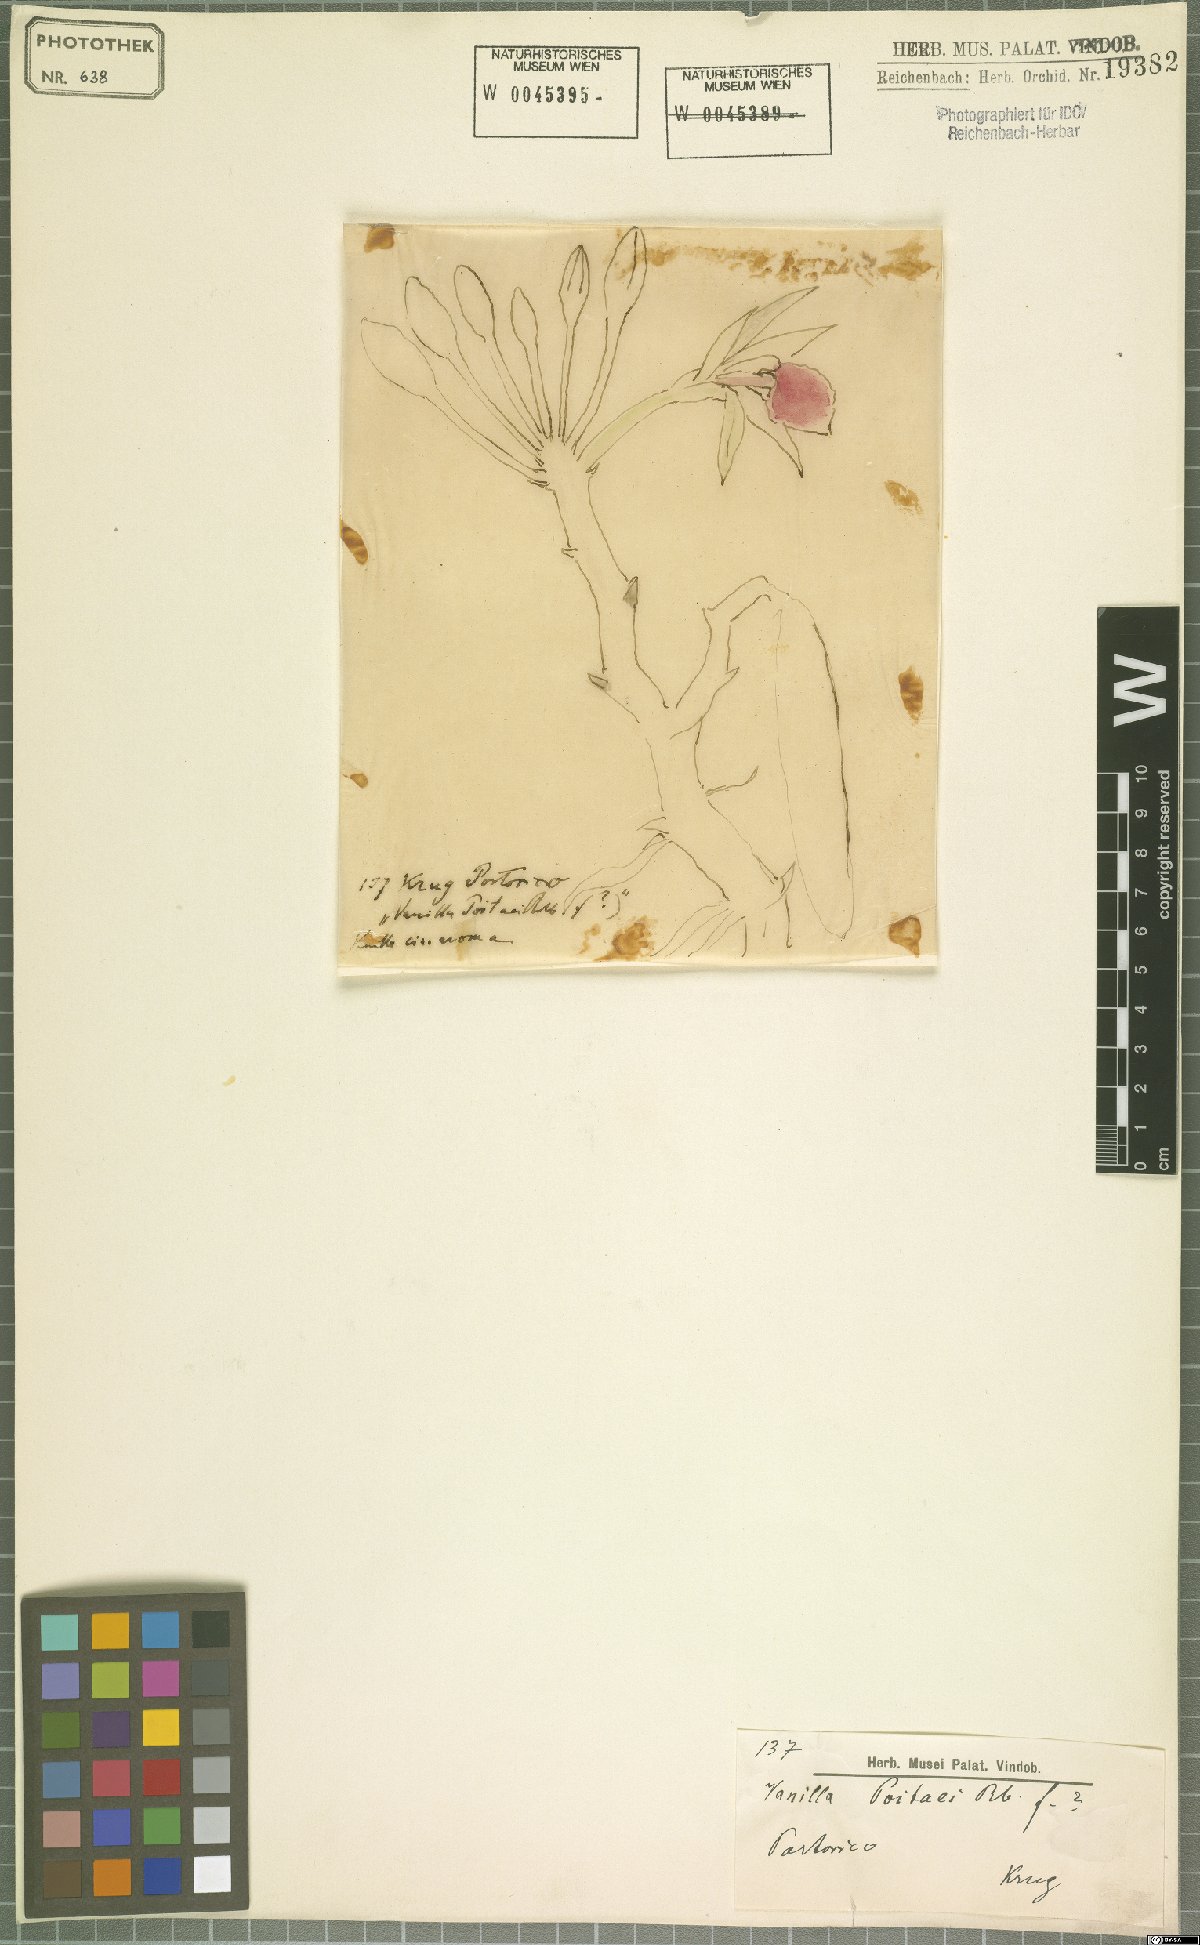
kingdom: Plantae
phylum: Tracheophyta
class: Liliopsida
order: Asparagales
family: Orchidaceae
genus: Vanilla
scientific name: Vanilla poitaei
